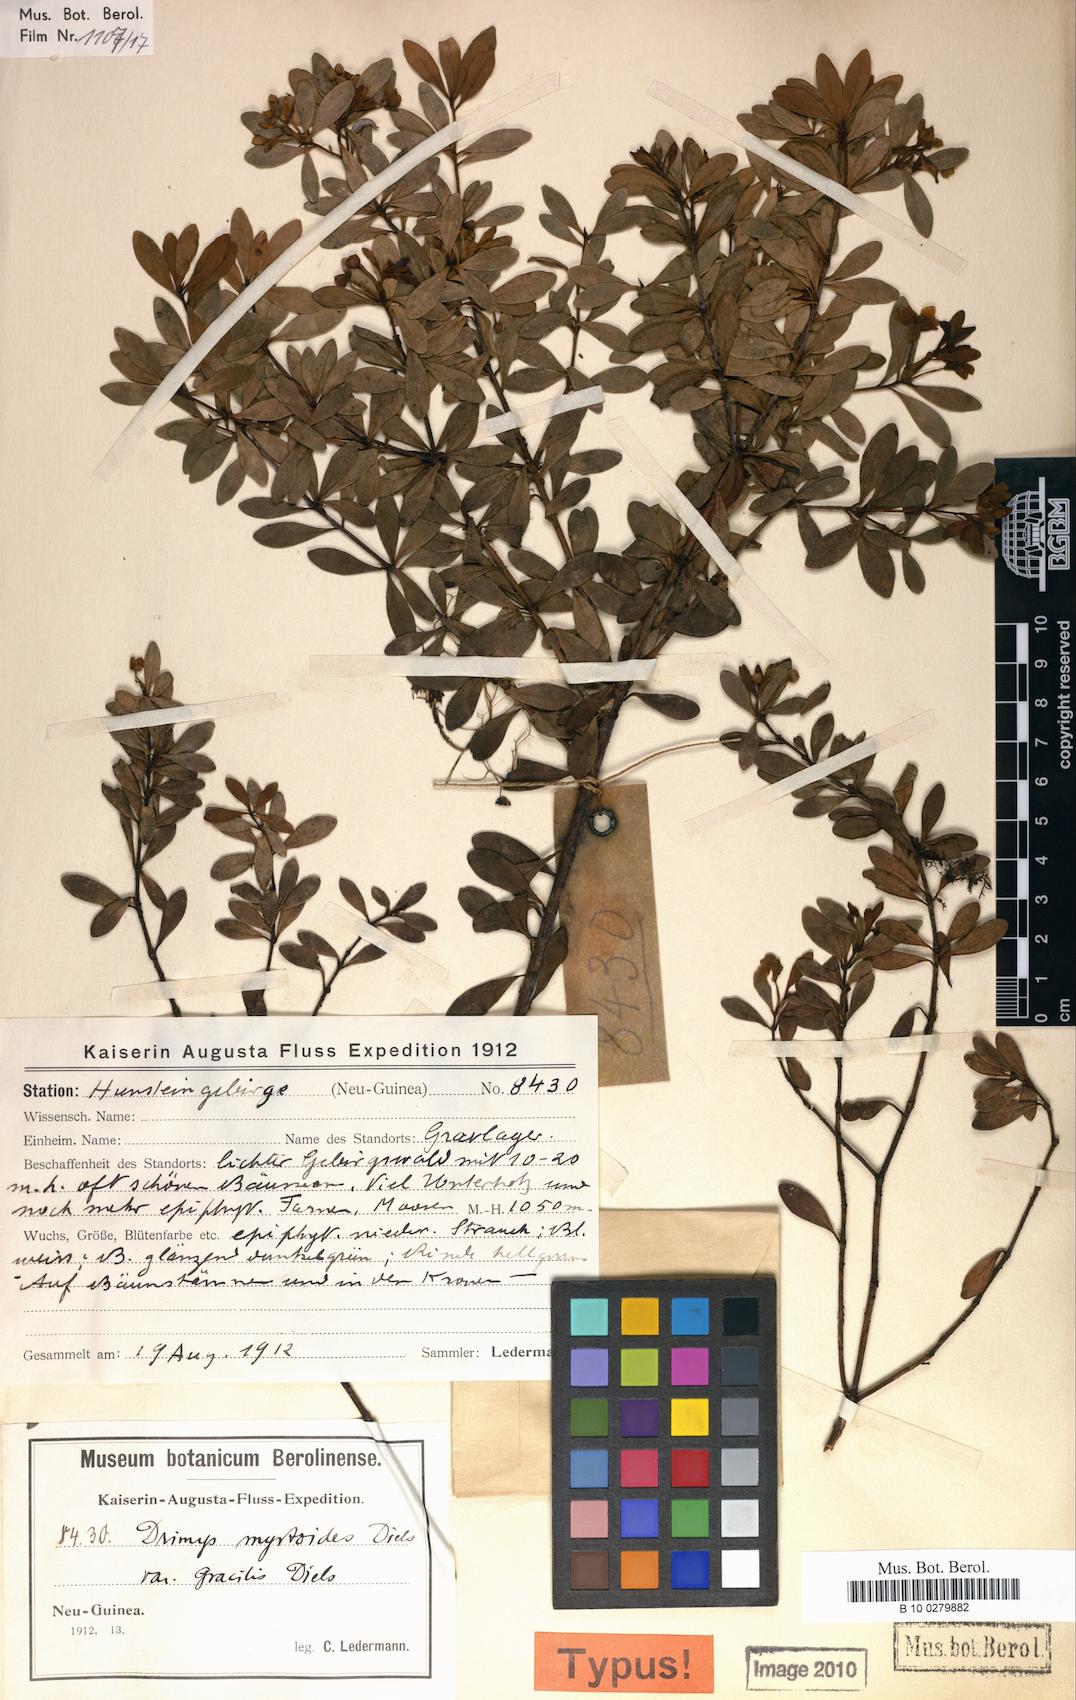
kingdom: Plantae
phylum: Tracheophyta
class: Magnoliopsida
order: Canellales
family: Winteraceae
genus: Drimys
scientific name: Drimys piperita
